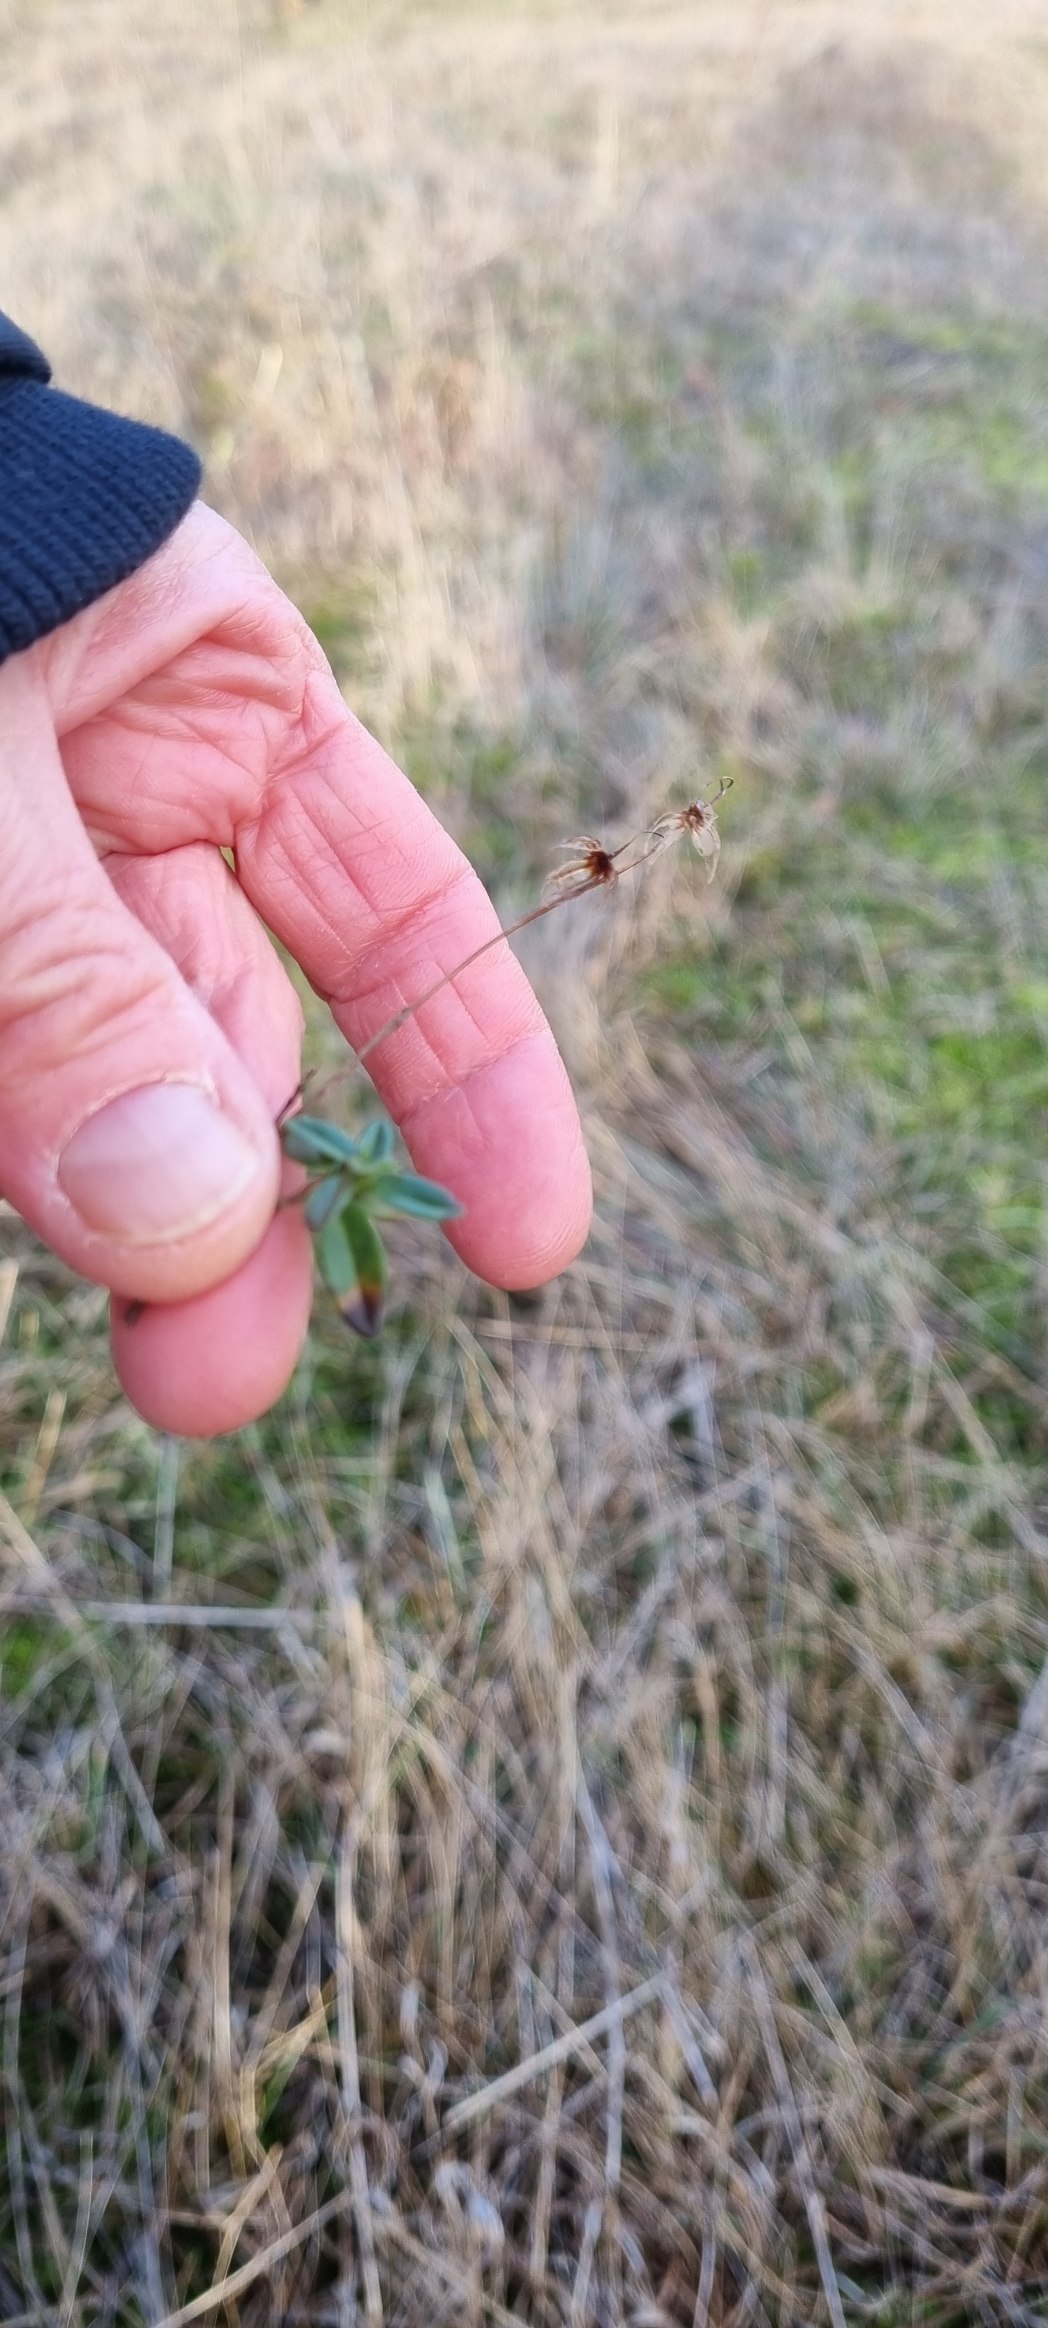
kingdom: Plantae
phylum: Tracheophyta
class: Magnoliopsida
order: Malvales
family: Cistaceae
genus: Helianthemum
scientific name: Helianthemum nummularium
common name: Soløje
